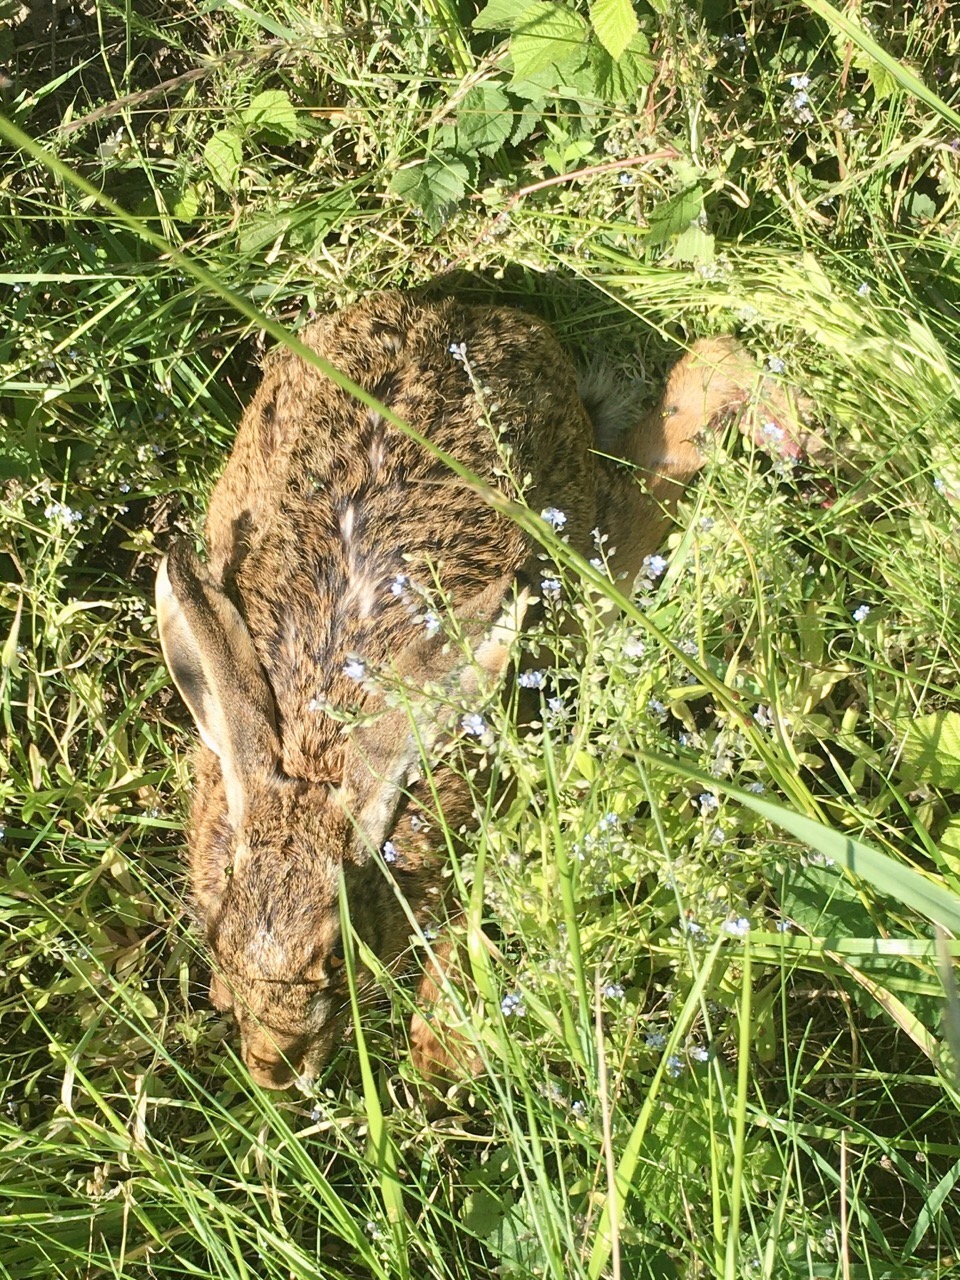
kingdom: Animalia
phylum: Chordata
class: Mammalia
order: Lagomorpha
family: Leporidae
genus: Lepus
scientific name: Lepus europaeus
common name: European hare
